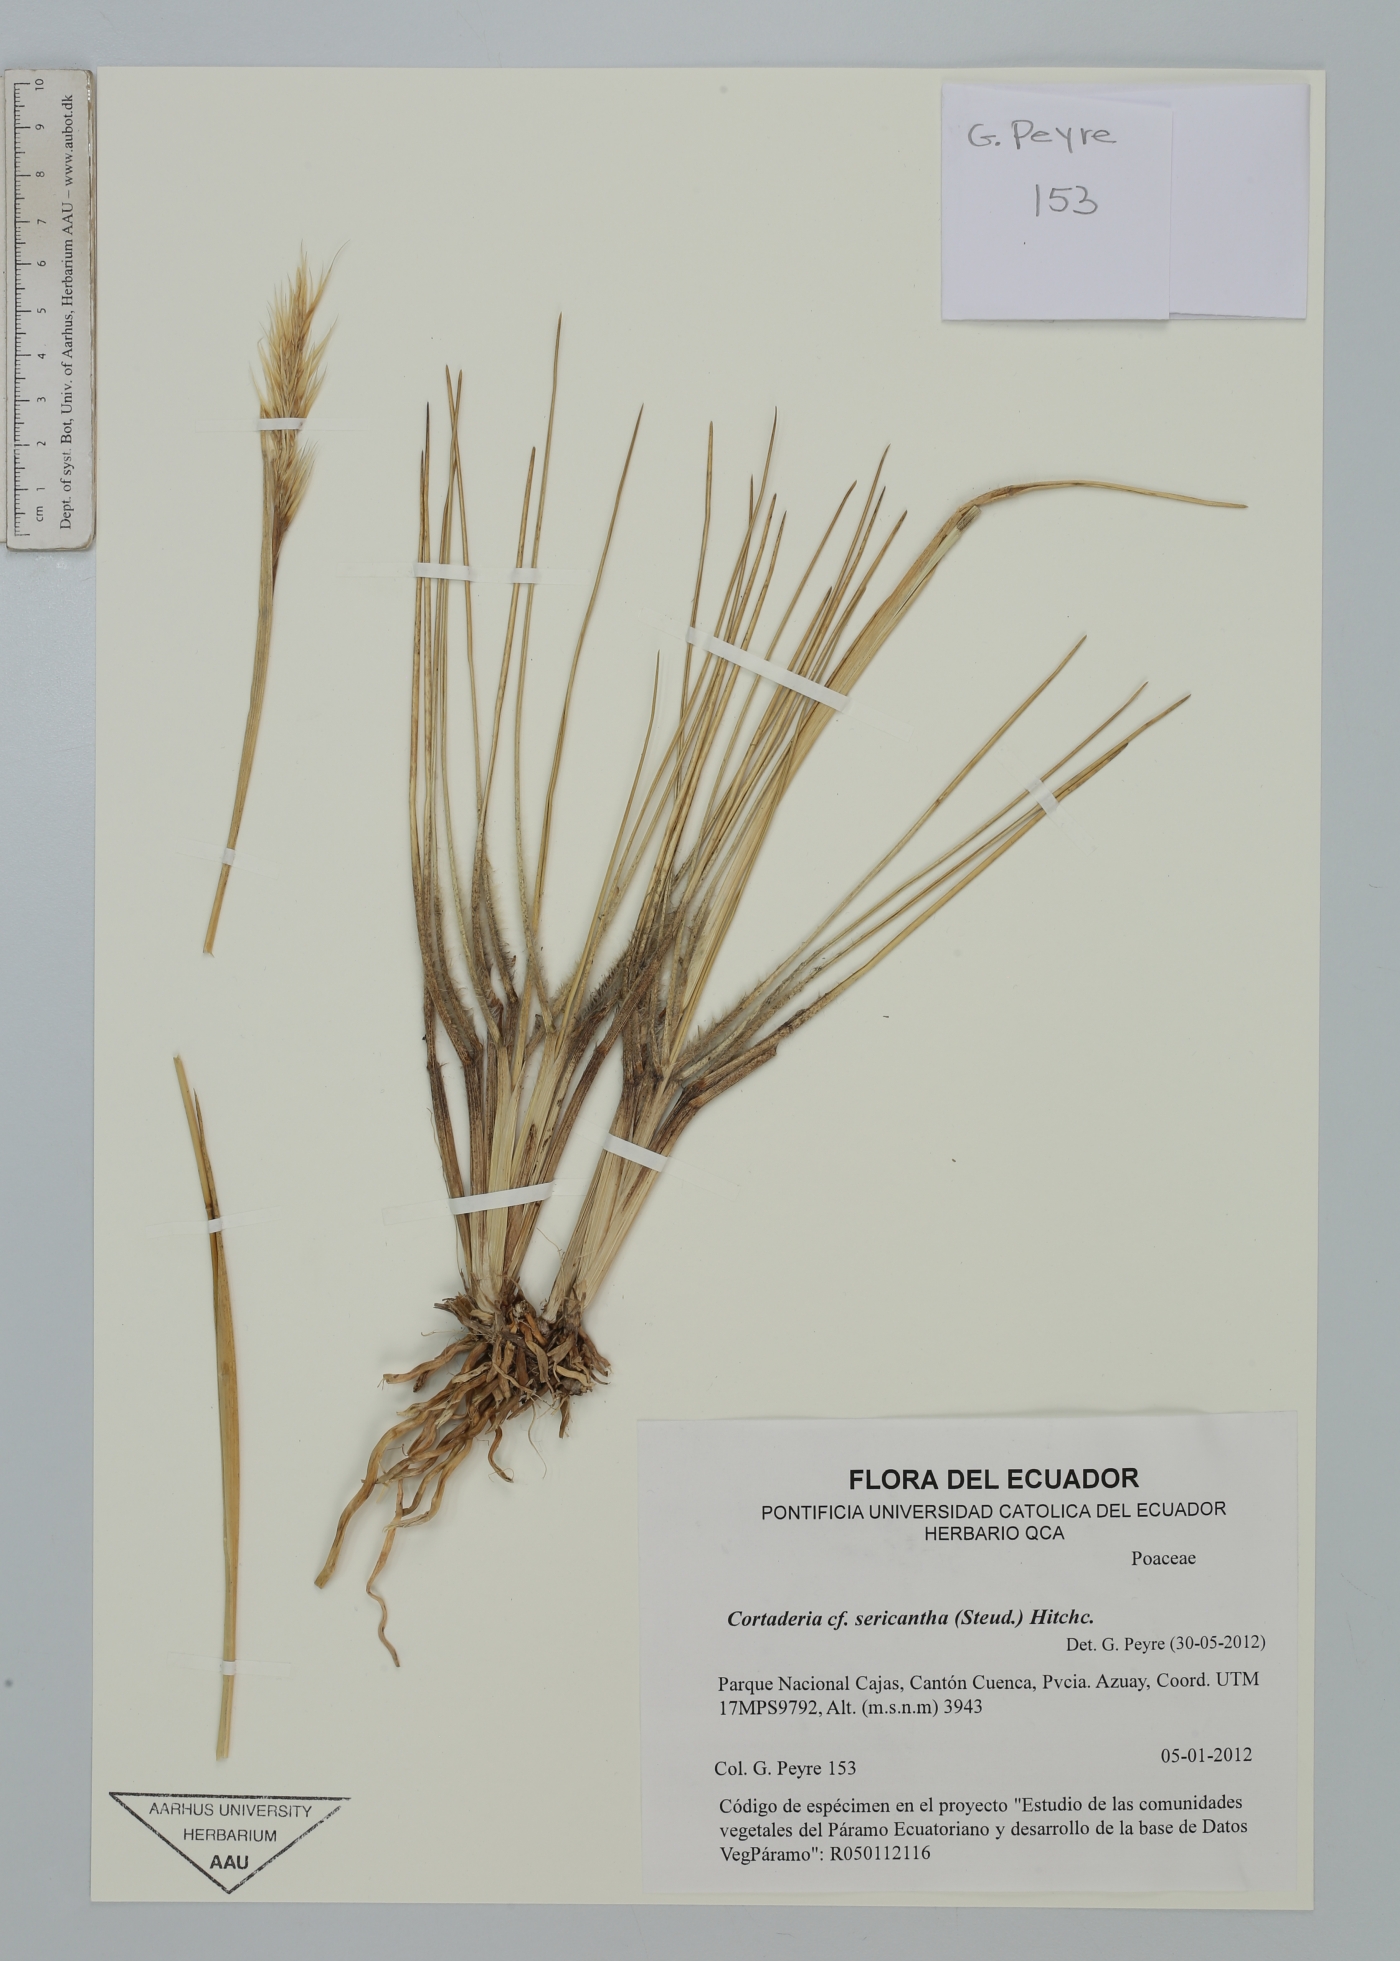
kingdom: Plantae
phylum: Tracheophyta
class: Liliopsida
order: Poales
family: Poaceae
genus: Cortaderia
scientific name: Cortaderia sericantha
